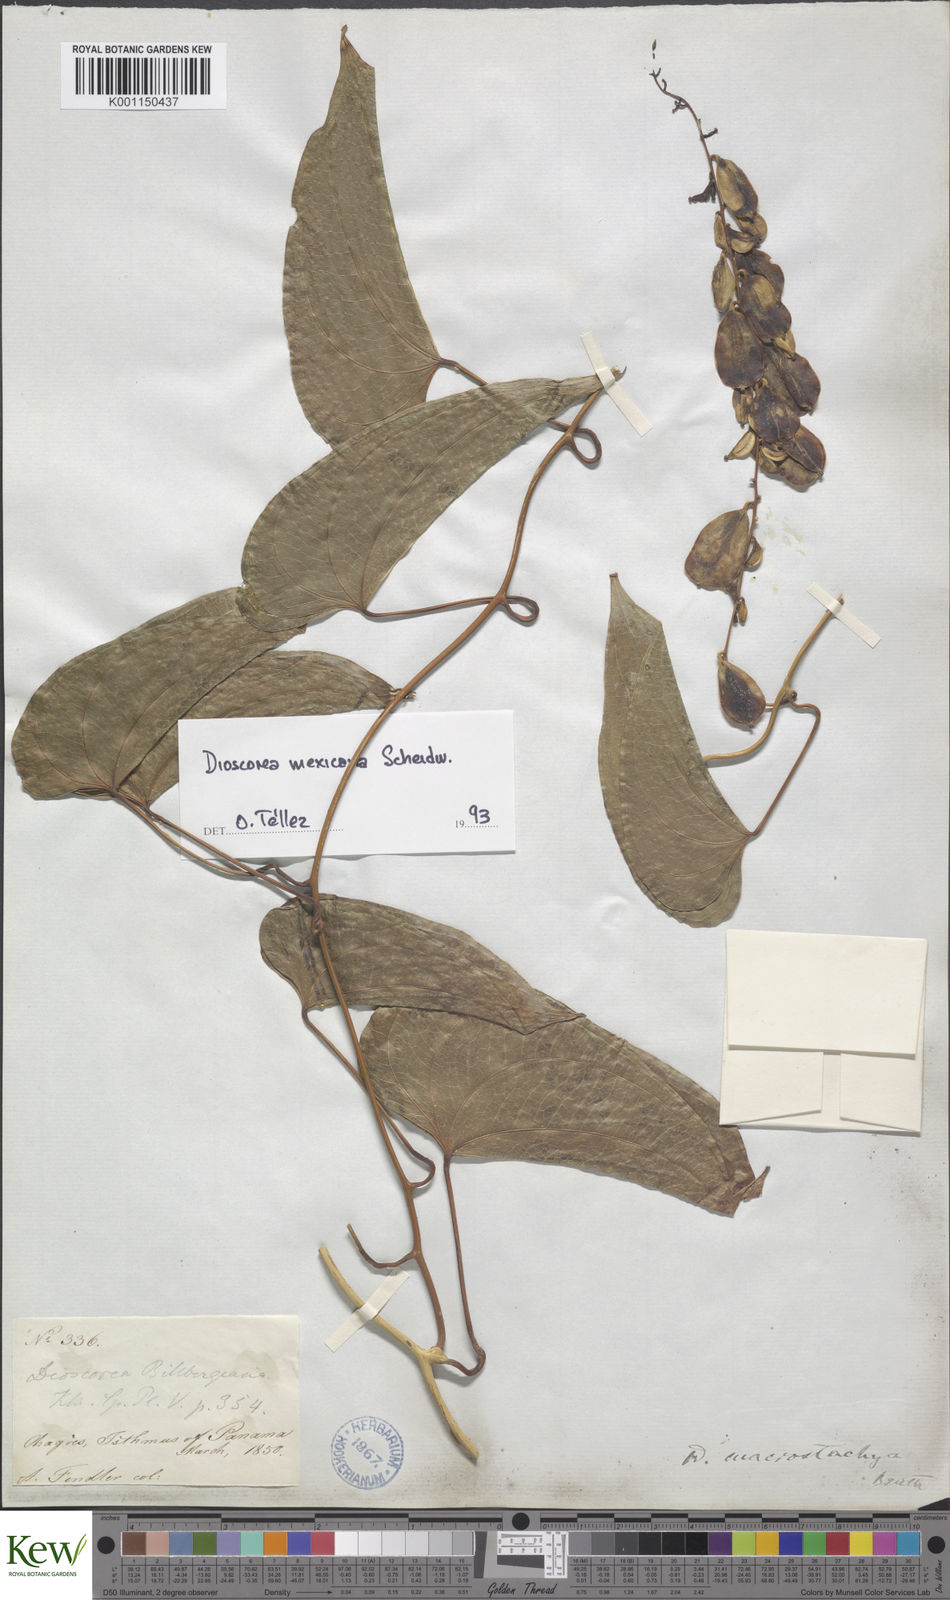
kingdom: Plantae
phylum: Tracheophyta
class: Liliopsida
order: Dioscoreales
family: Dioscoreaceae
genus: Dioscorea
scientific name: Dioscorea mexicana
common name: Mexican yam
